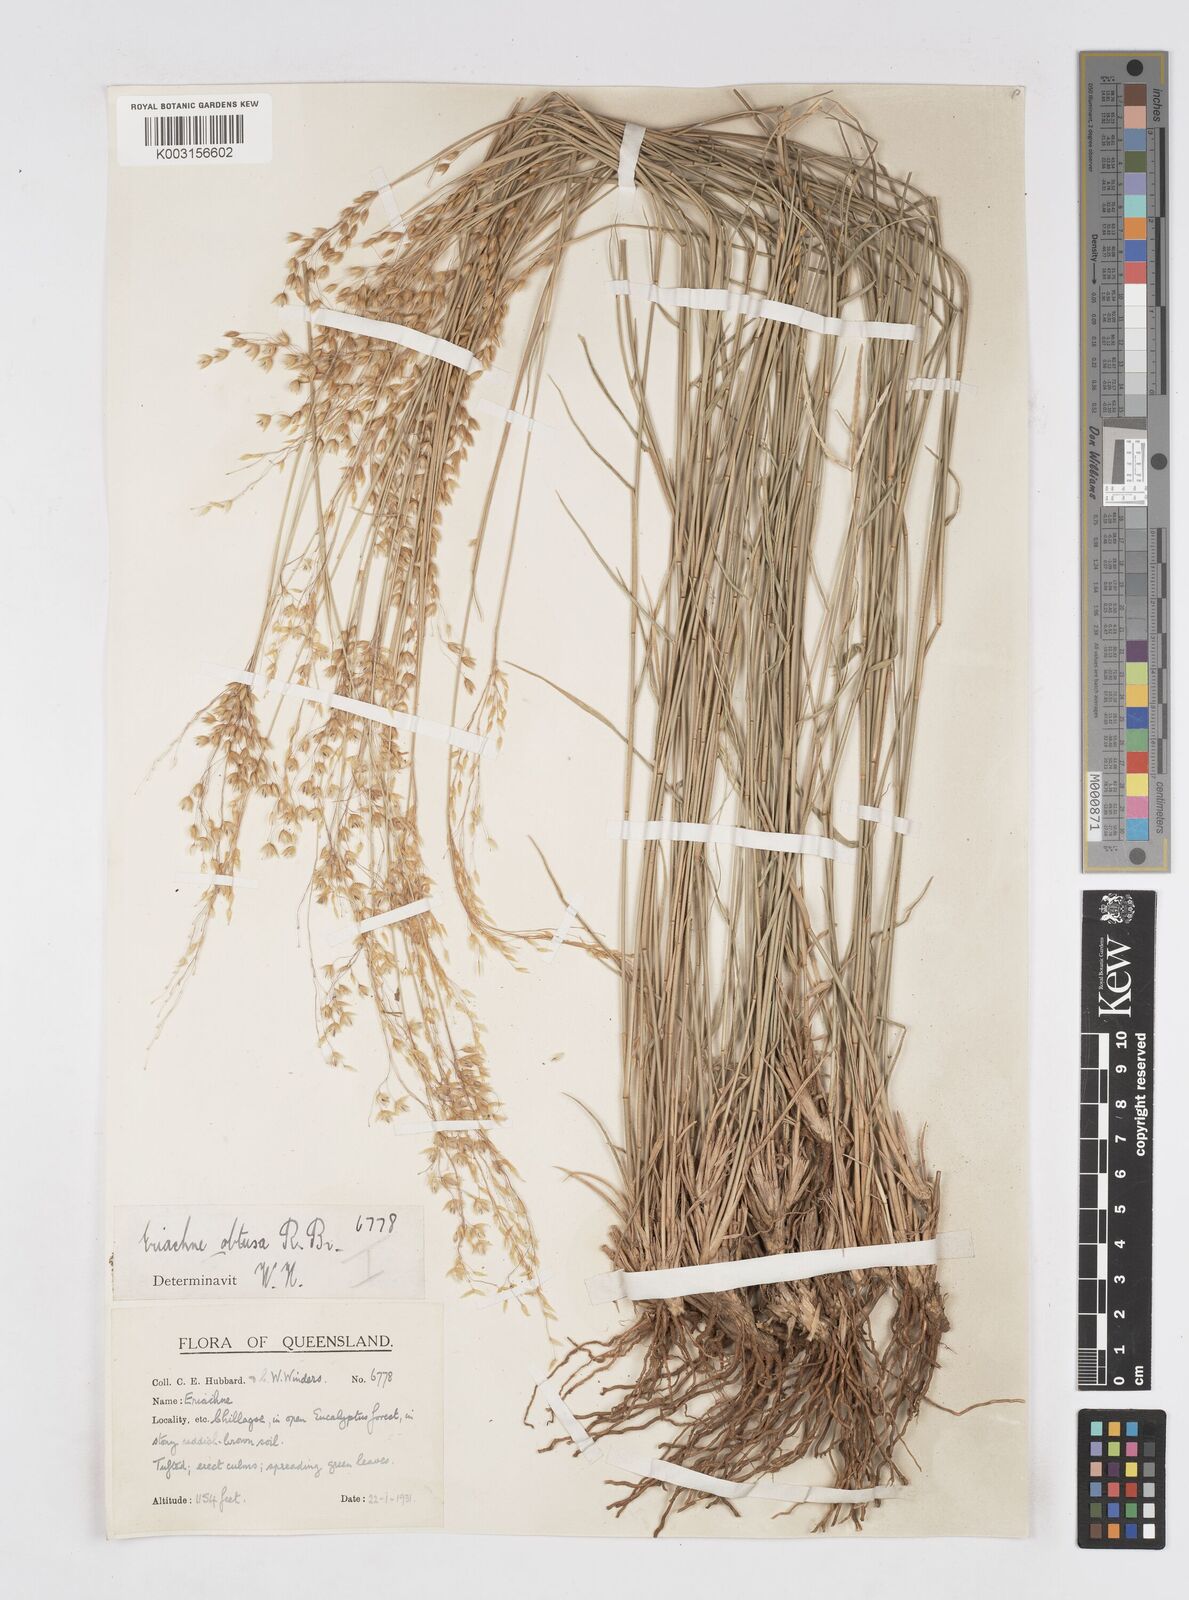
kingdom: Plantae
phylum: Tracheophyta
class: Liliopsida
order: Poales
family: Poaceae
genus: Eriachne
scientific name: Eriachne obtusa
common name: Northern wanderrie grass
